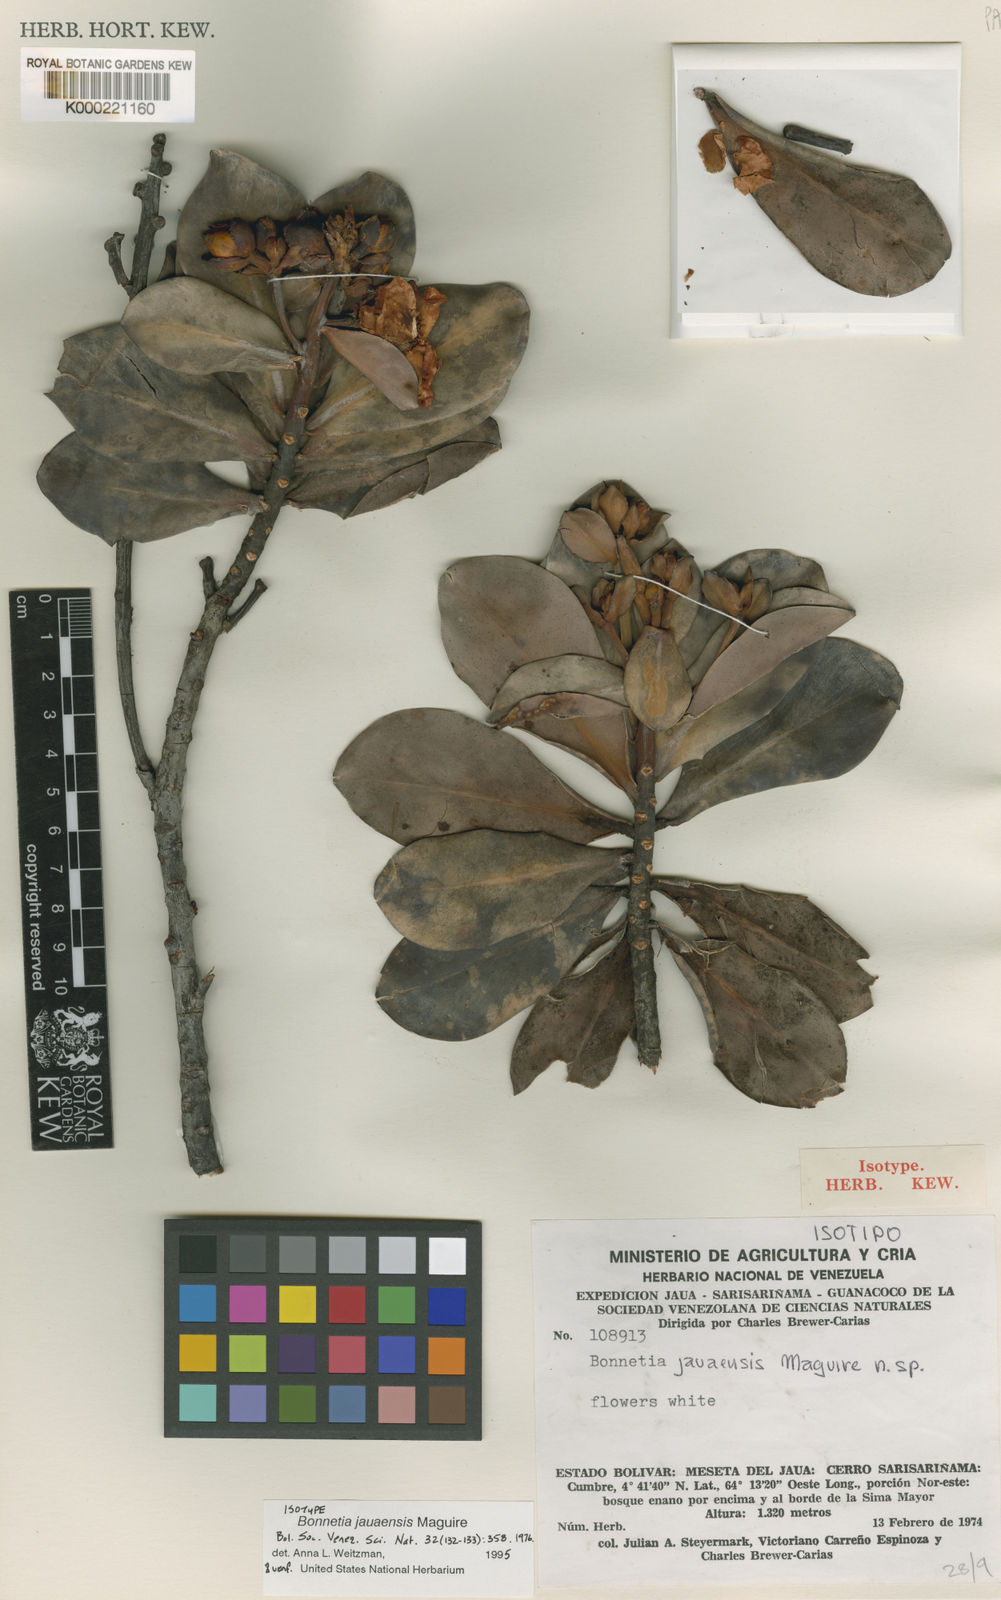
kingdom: Plantae
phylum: Tracheophyta
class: Magnoliopsida
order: Malpighiales
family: Bonnetiaceae
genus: Bonnetia
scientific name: Bonnetia jauaensis
